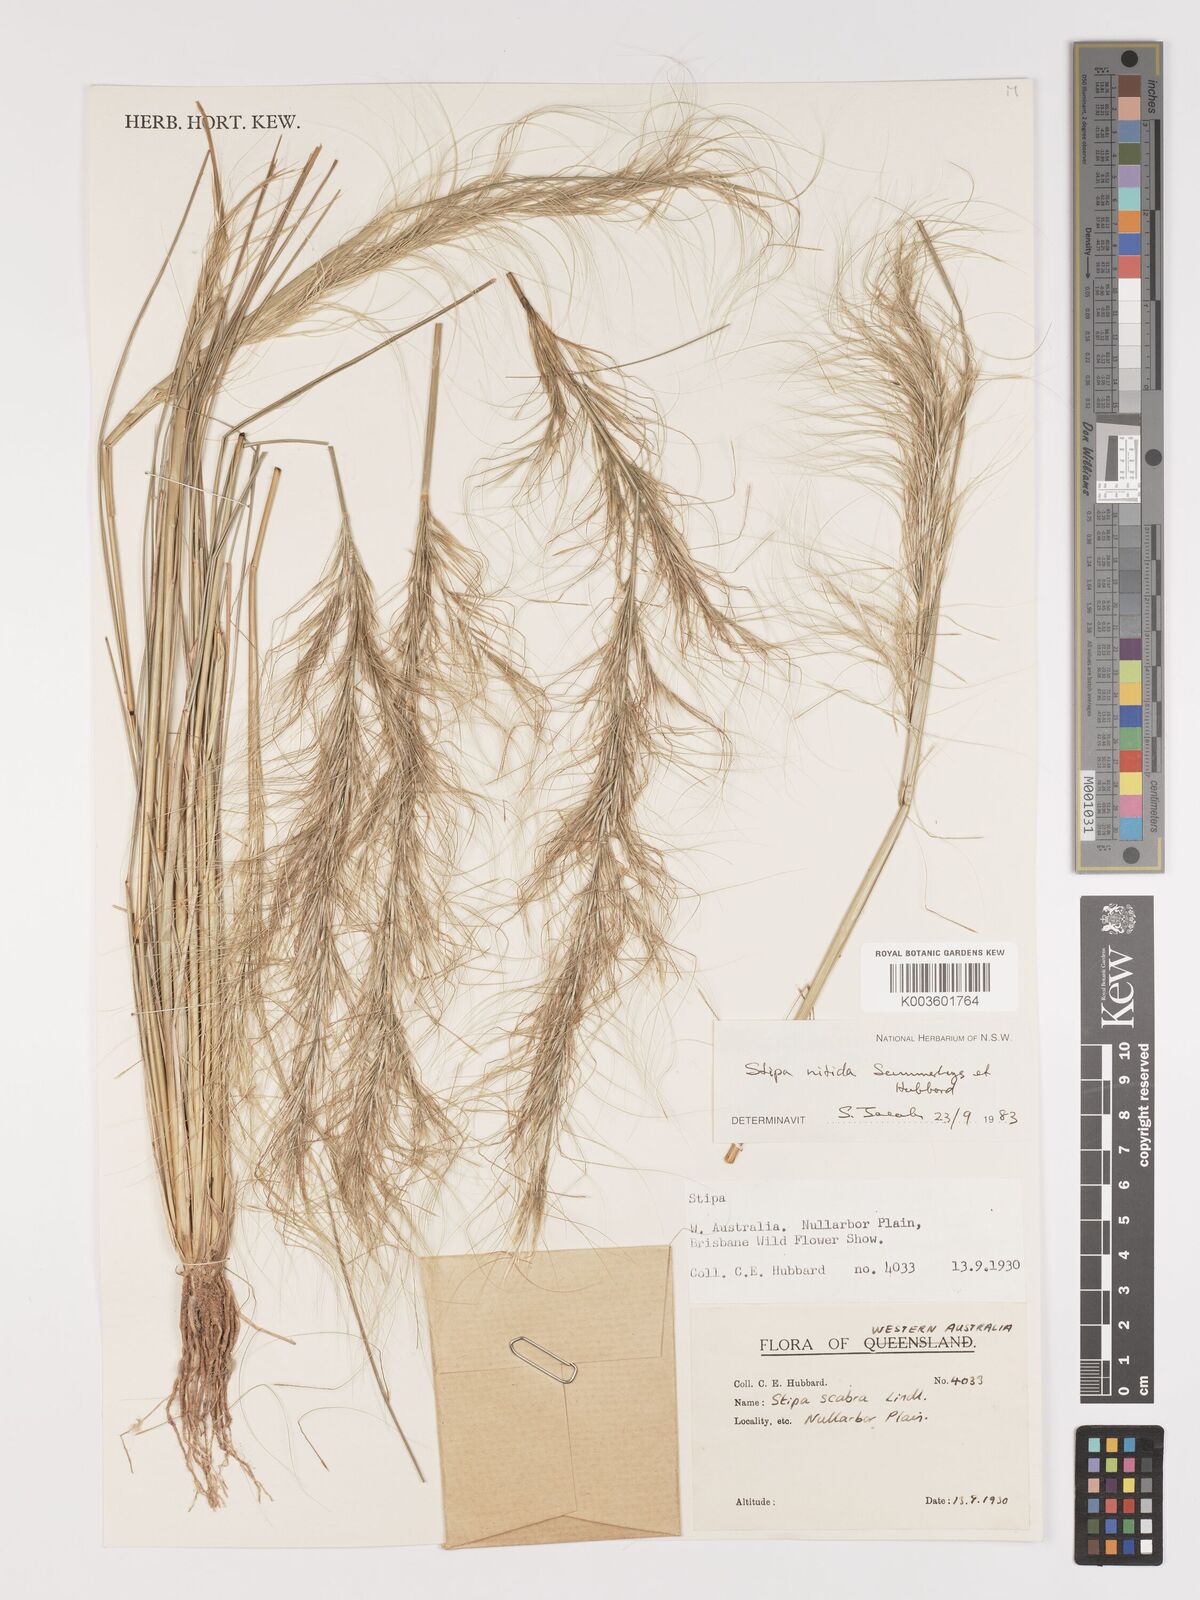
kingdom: Plantae
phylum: Tracheophyta
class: Liliopsida
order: Poales
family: Poaceae
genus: Austrostipa
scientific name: Austrostipa nitida
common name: Balcarra grass
